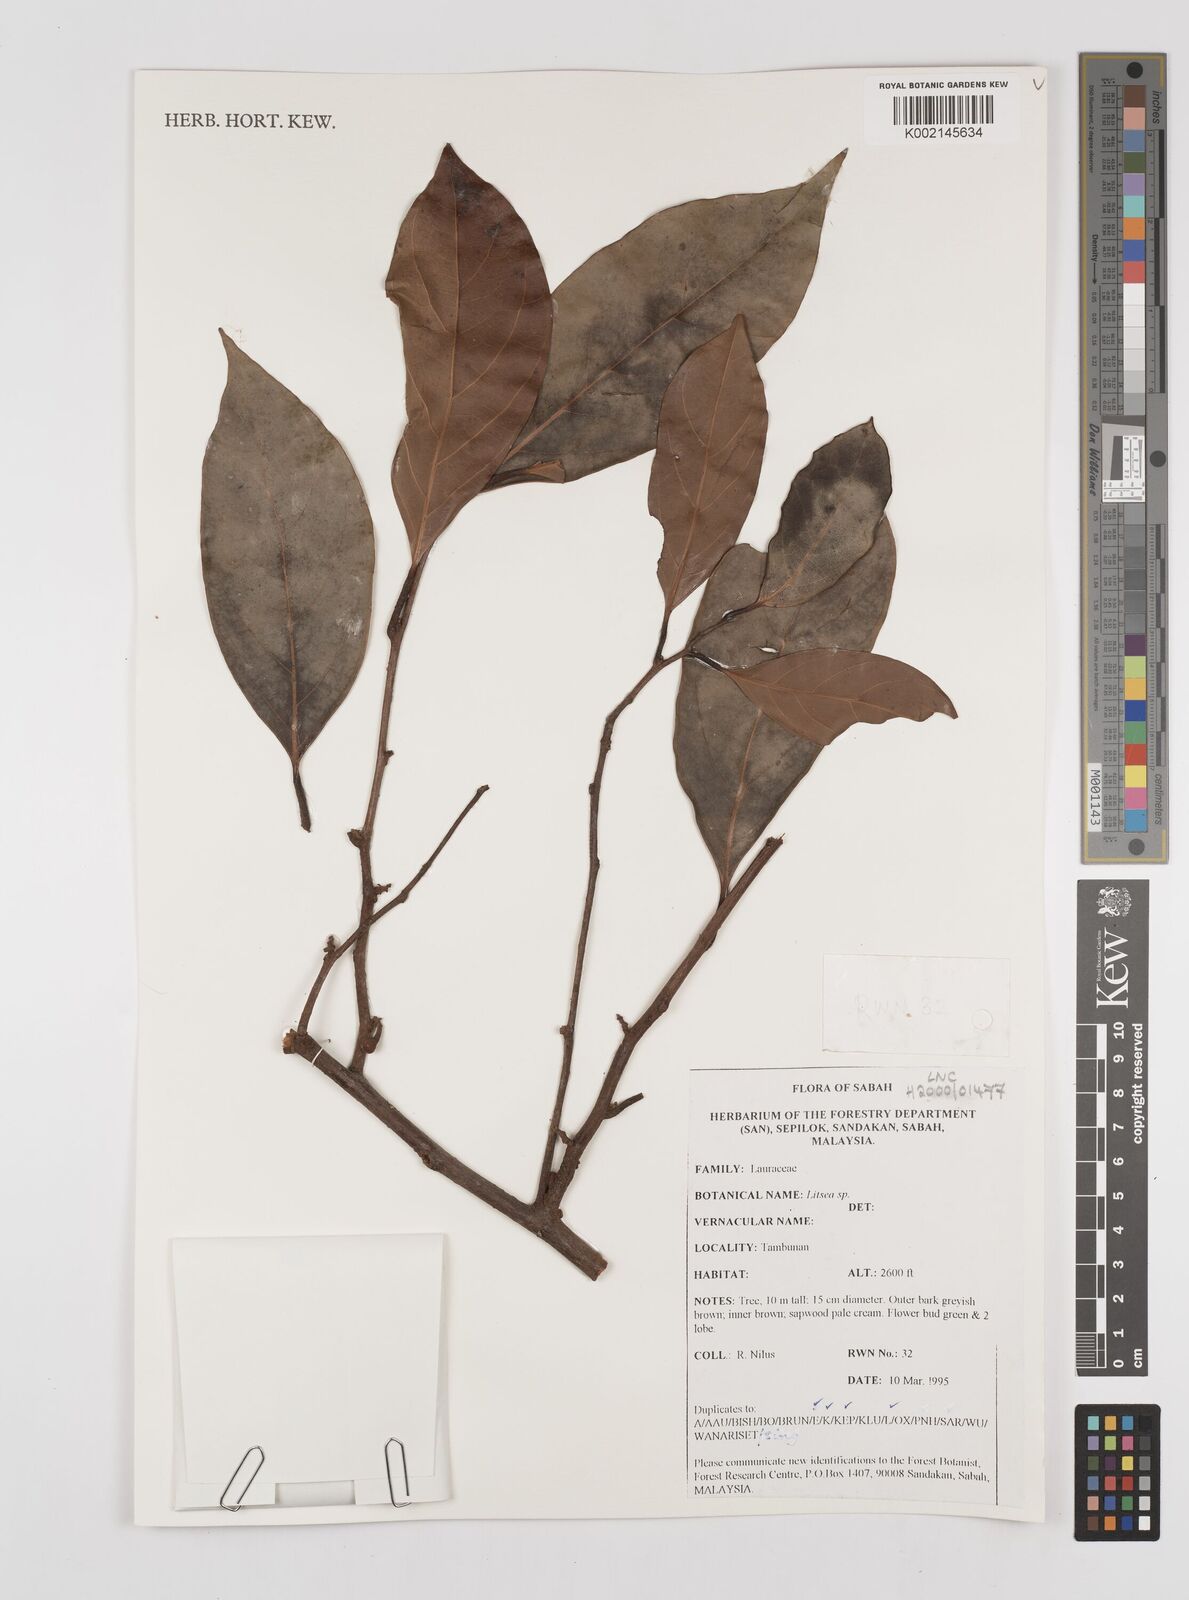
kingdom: Plantae
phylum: Tracheophyta
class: Magnoliopsida
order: Laurales
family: Lauraceae
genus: Litsea
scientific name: Litsea
